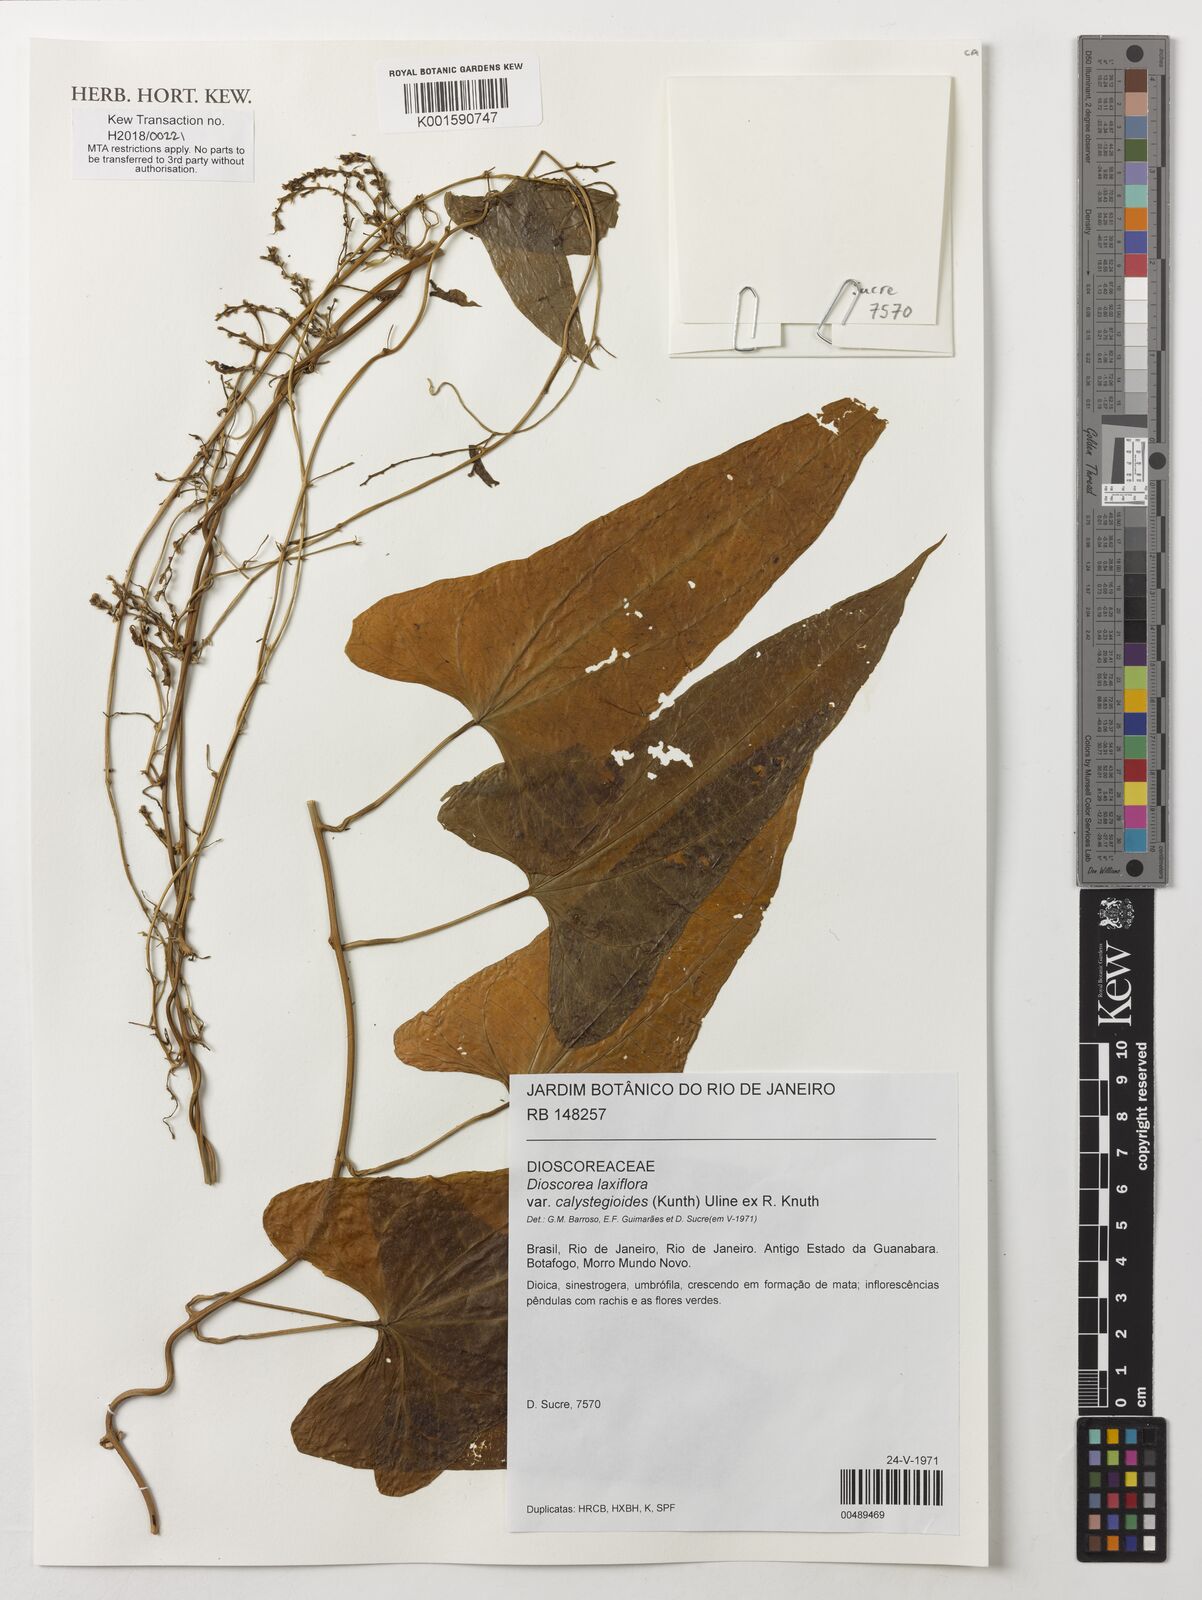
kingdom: Plantae
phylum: Tracheophyta
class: Liliopsida
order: Dioscoreales
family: Dioscoreaceae
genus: Dioscorea
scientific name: Dioscorea laxiflora
